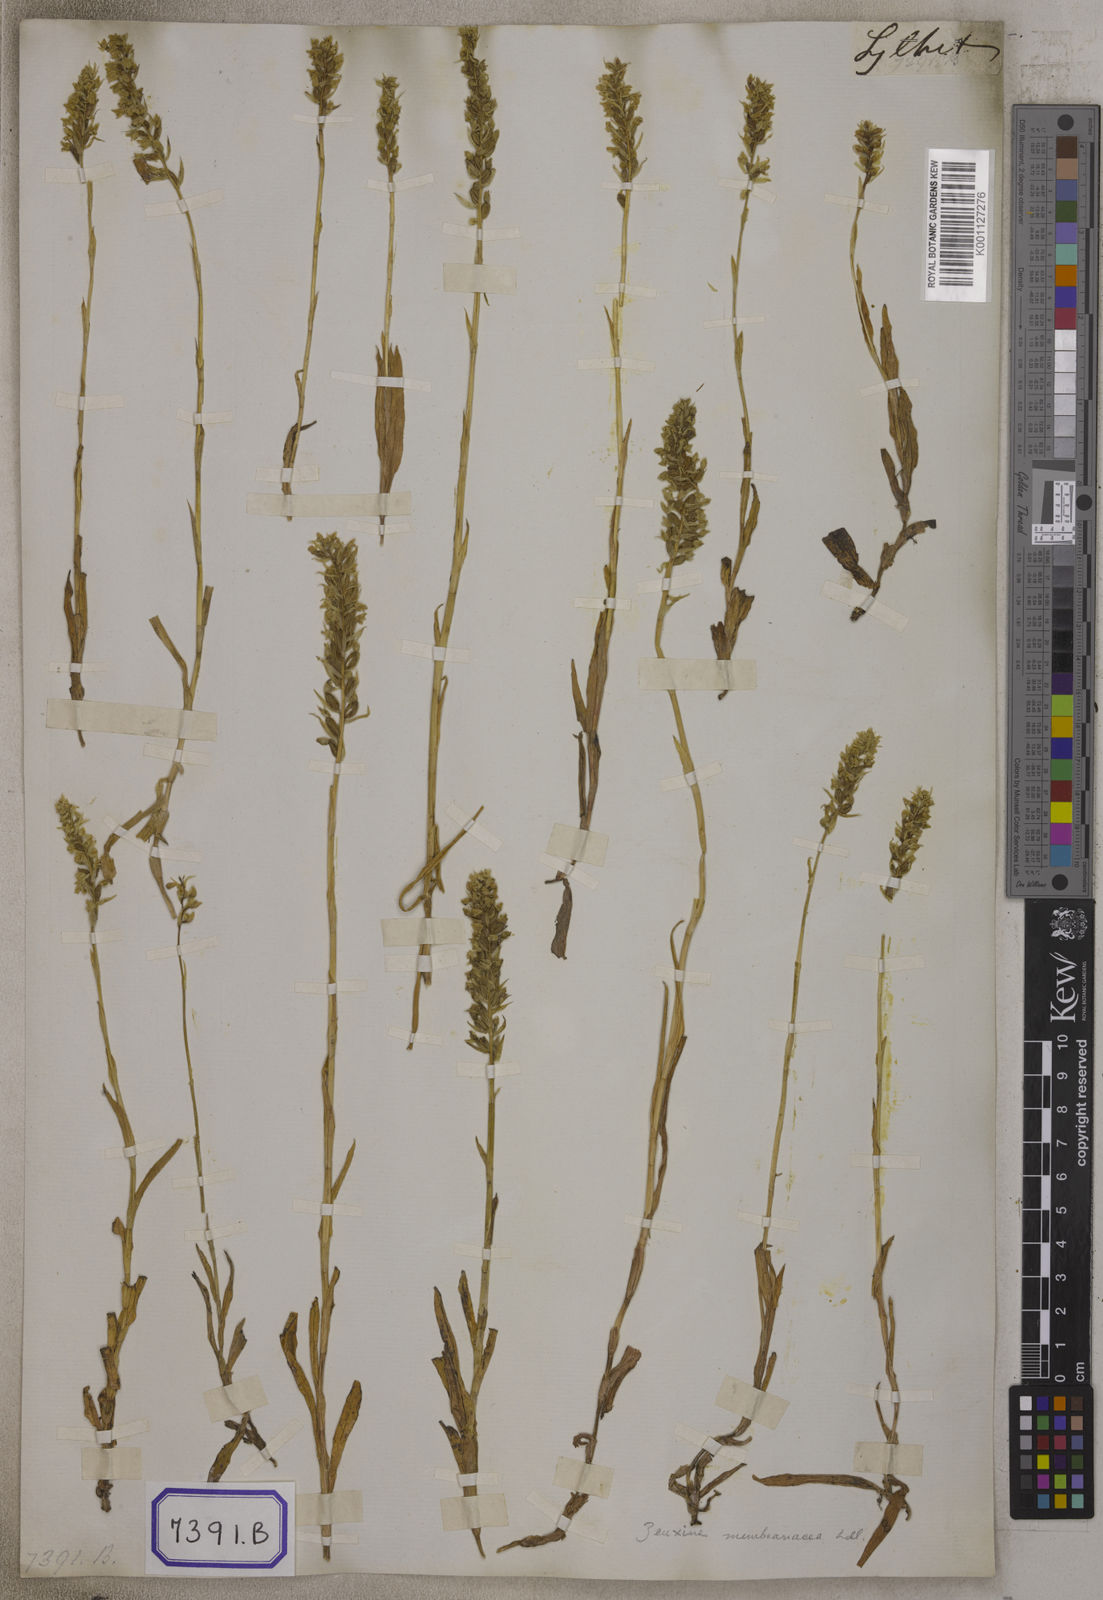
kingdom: Plantae
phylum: Tracheophyta
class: Liliopsida
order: Asparagales
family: Orchidaceae
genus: Zeuxine
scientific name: Zeuxine membranacea
